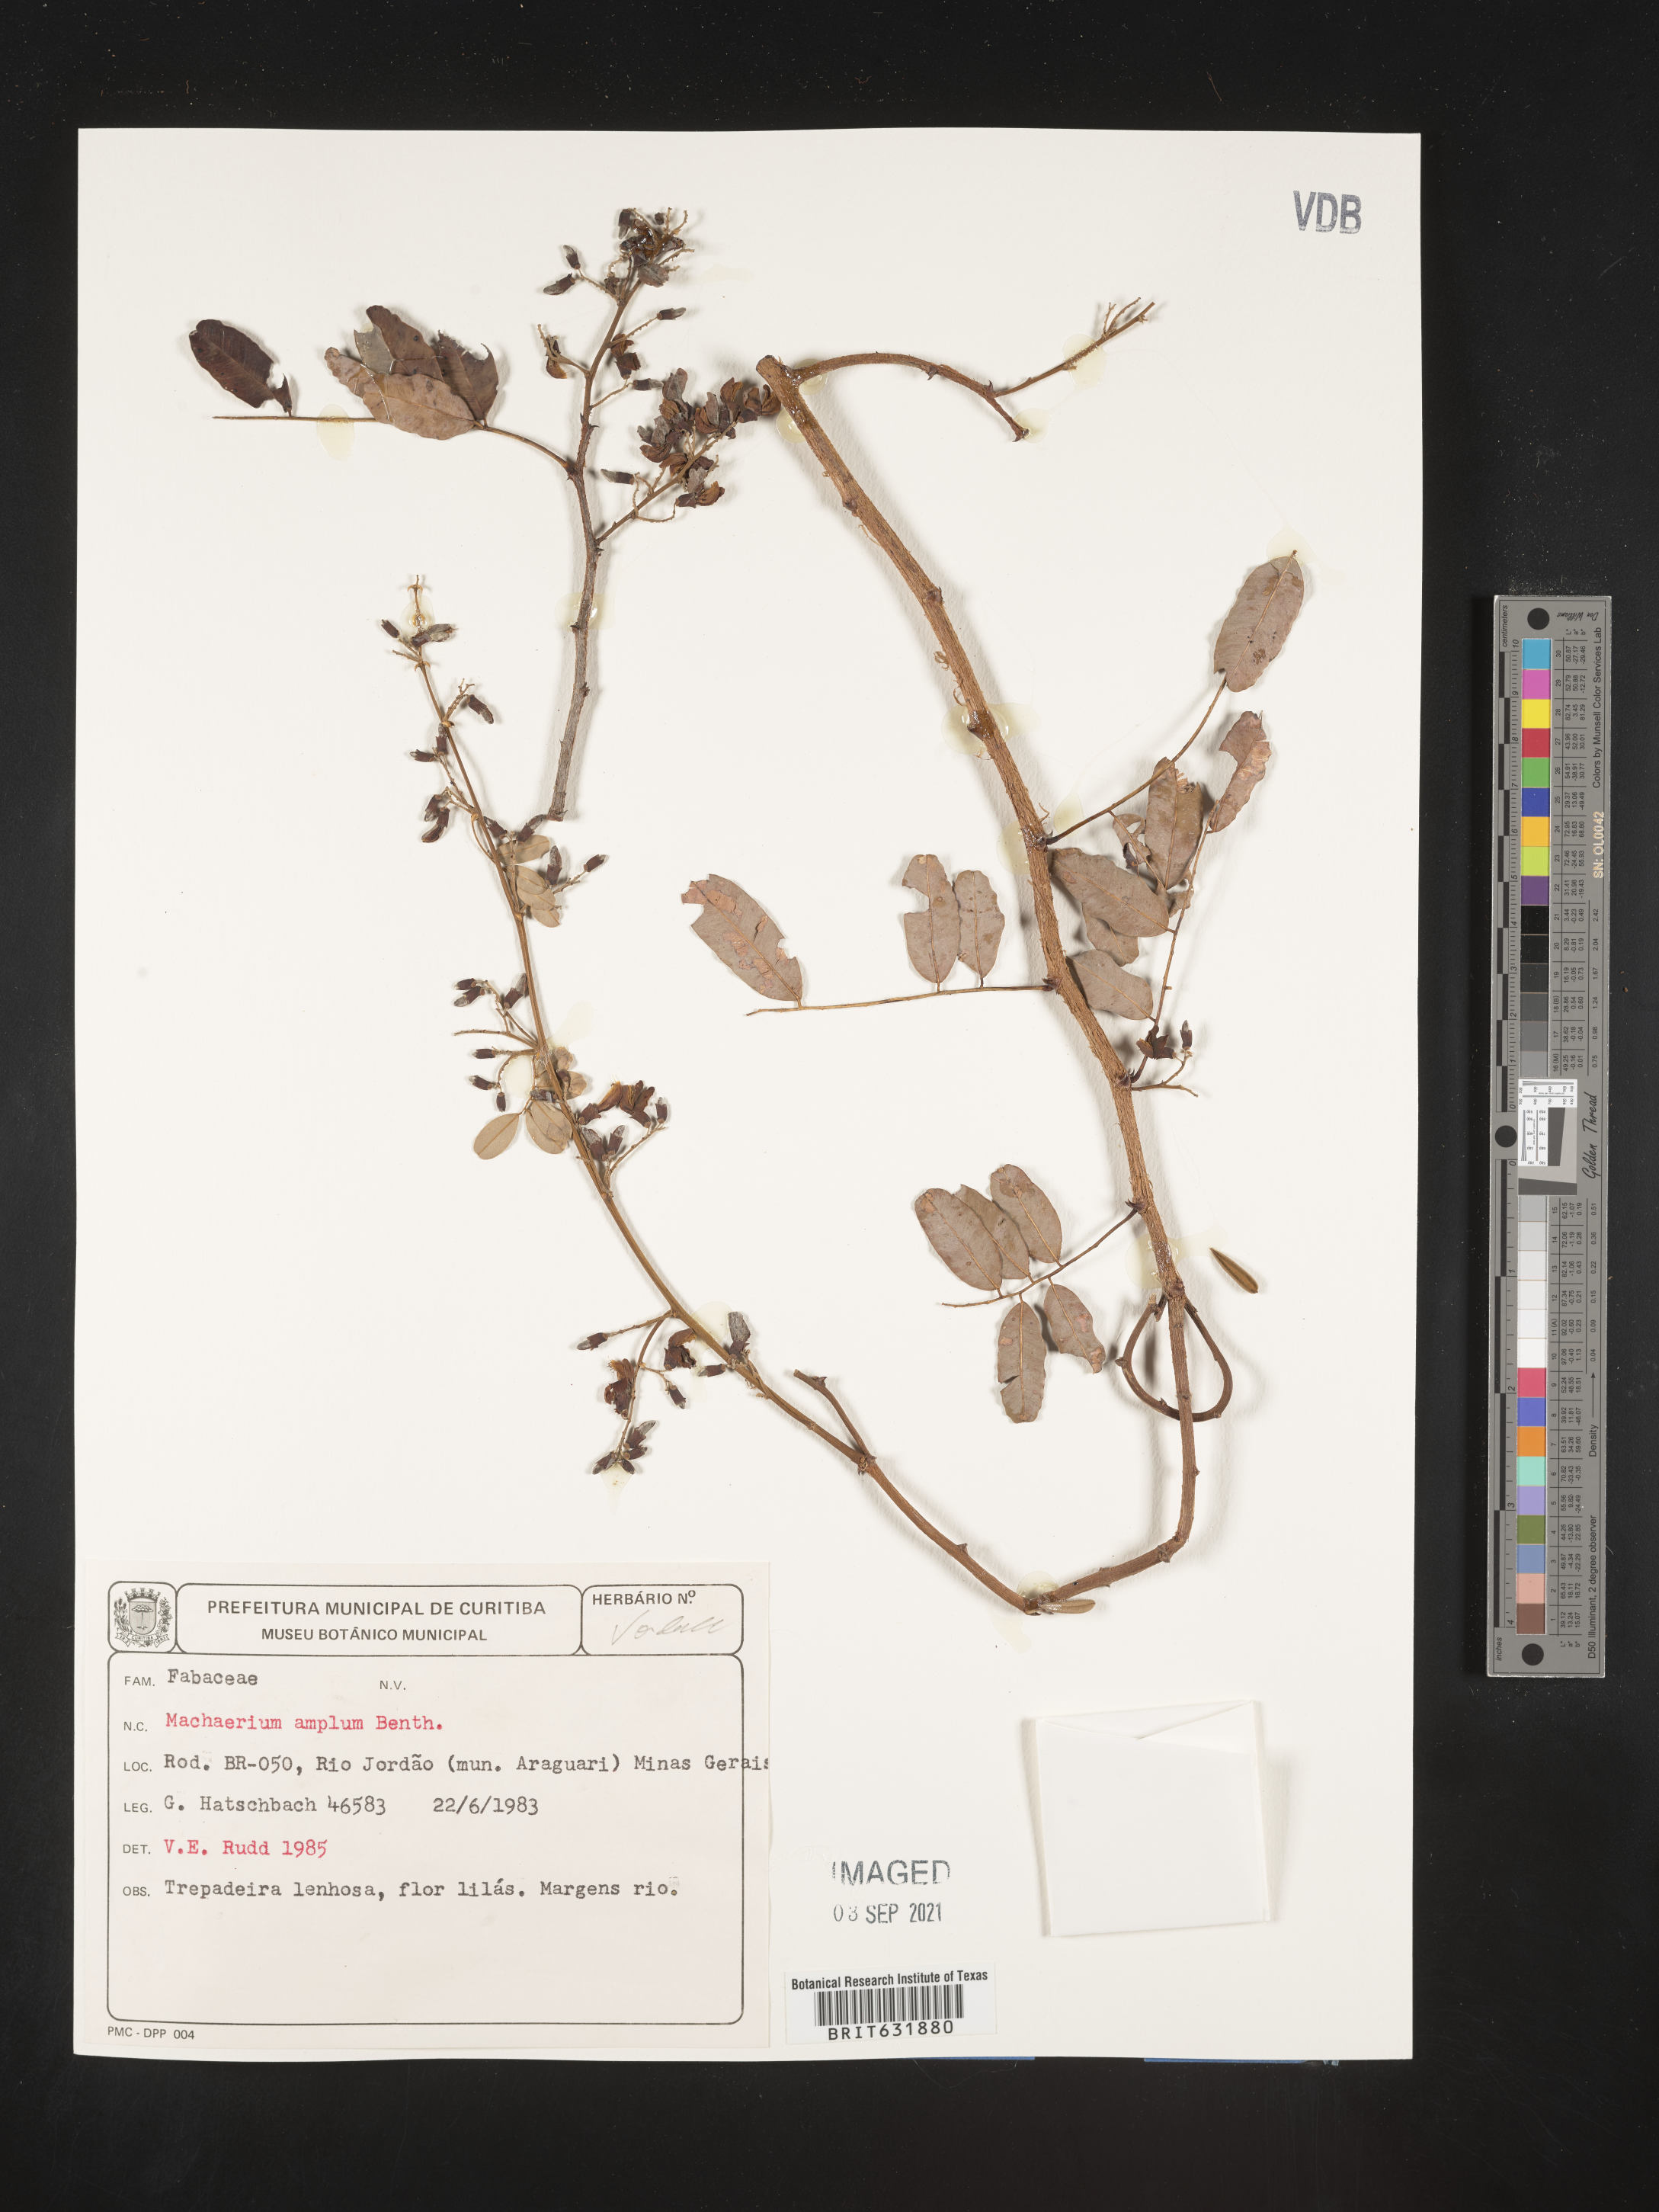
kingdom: Plantae
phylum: Tracheophyta
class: Magnoliopsida
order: Fabales
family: Fabaceae
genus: Machaerium
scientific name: Machaerium
